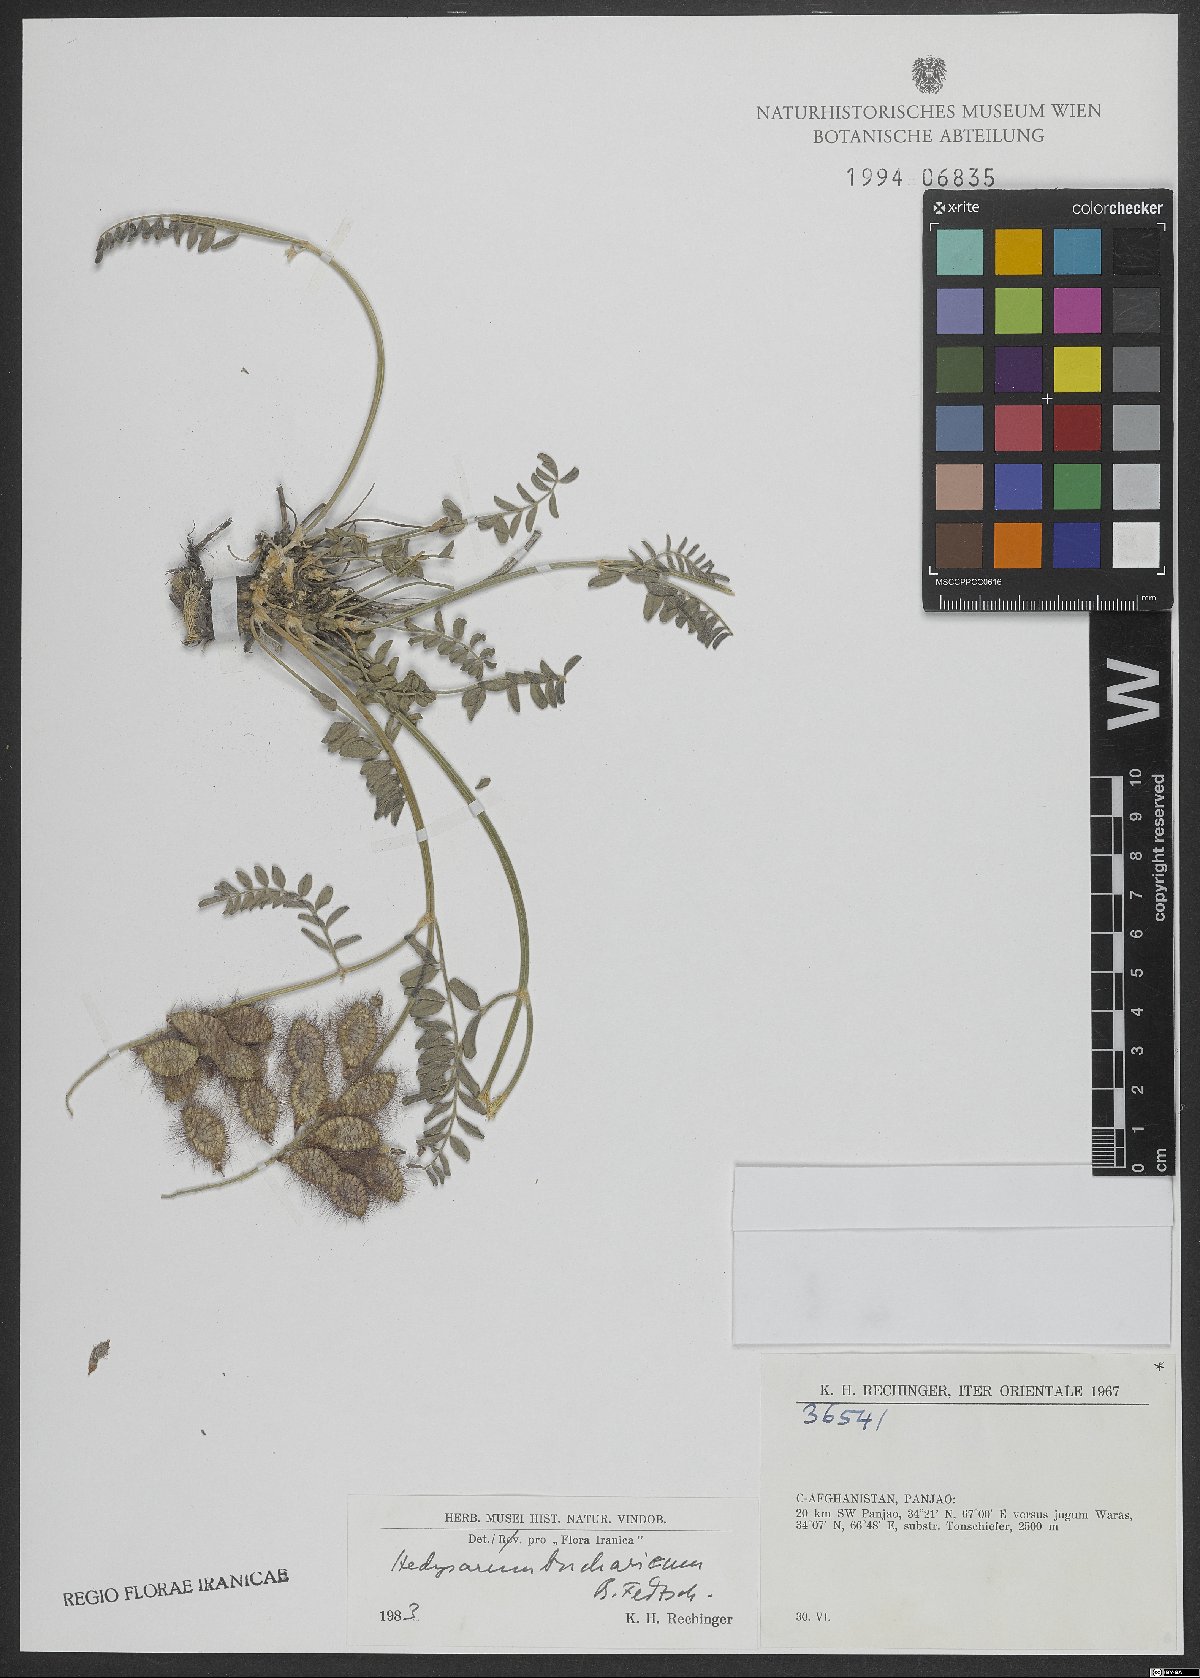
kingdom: Plantae
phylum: Tracheophyta
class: Magnoliopsida
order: Fabales
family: Fabaceae
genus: Hedysarum
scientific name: Hedysarum bucharicum
